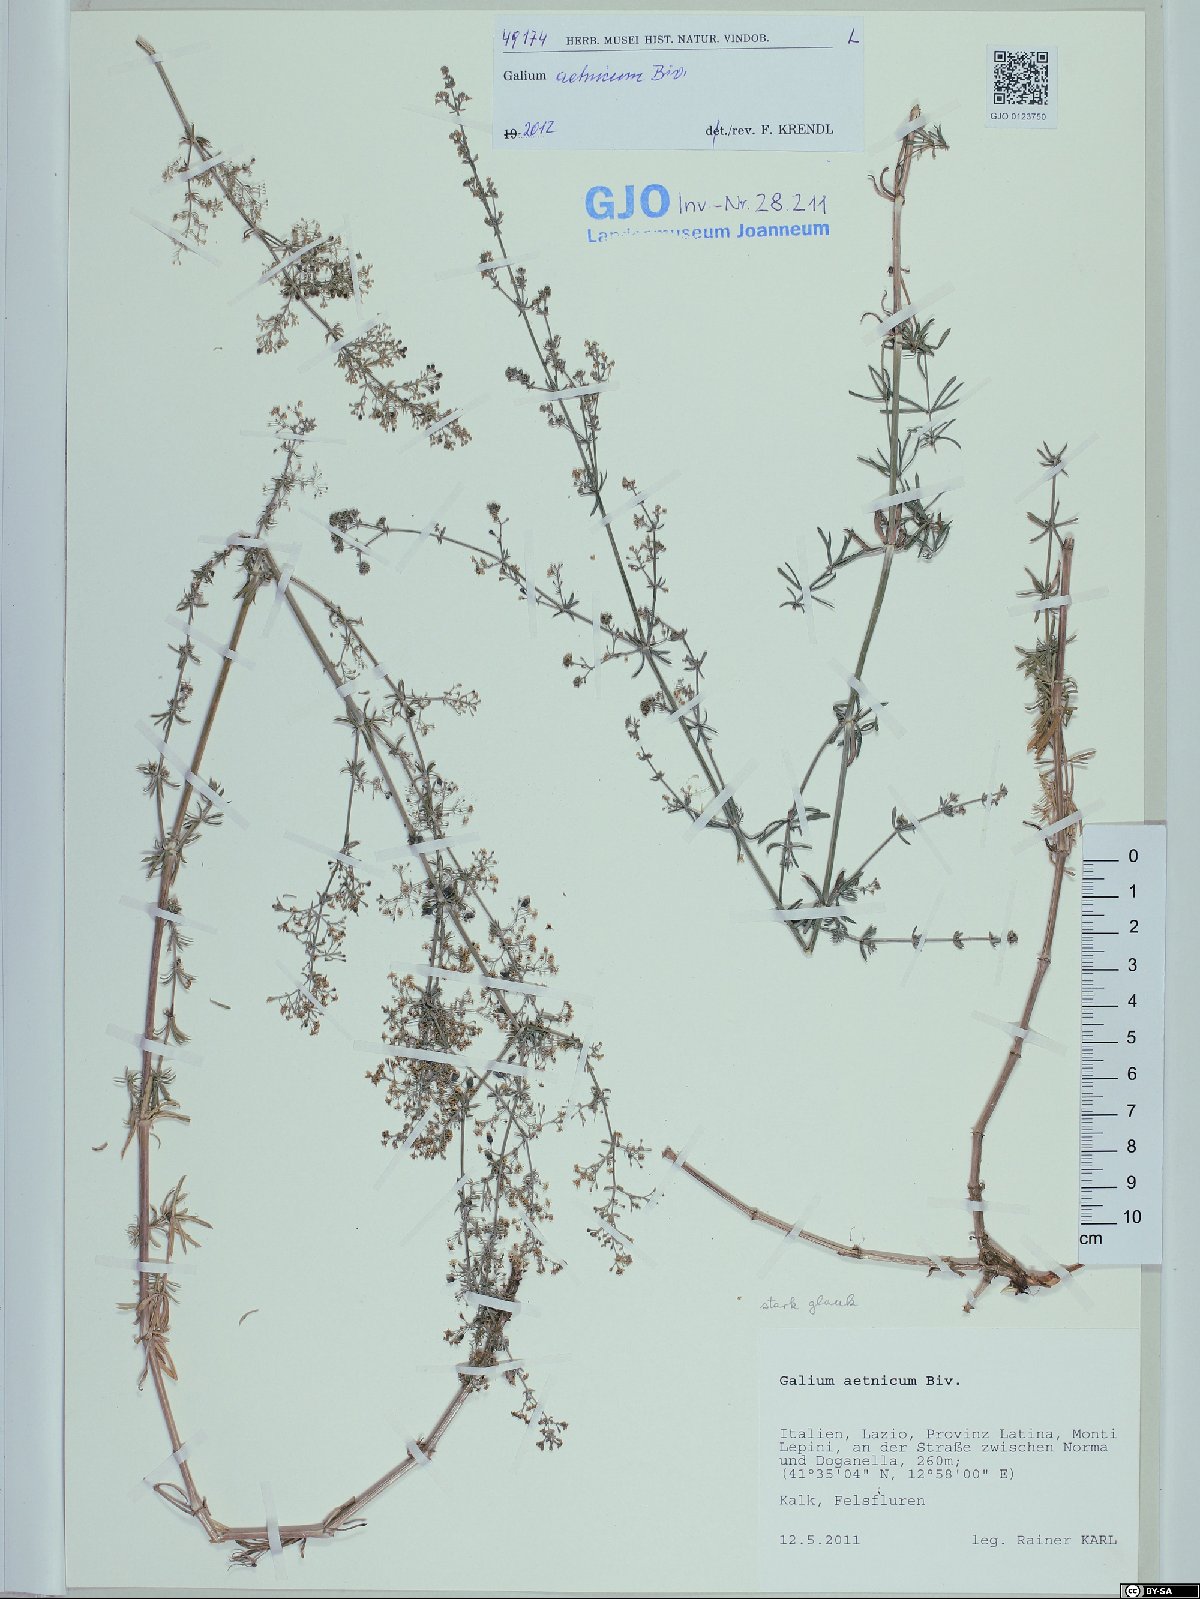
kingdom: Plantae
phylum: Tracheophyta
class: Magnoliopsida
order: Gentianales
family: Rubiaceae
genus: Galium
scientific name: Galium aetnicum
